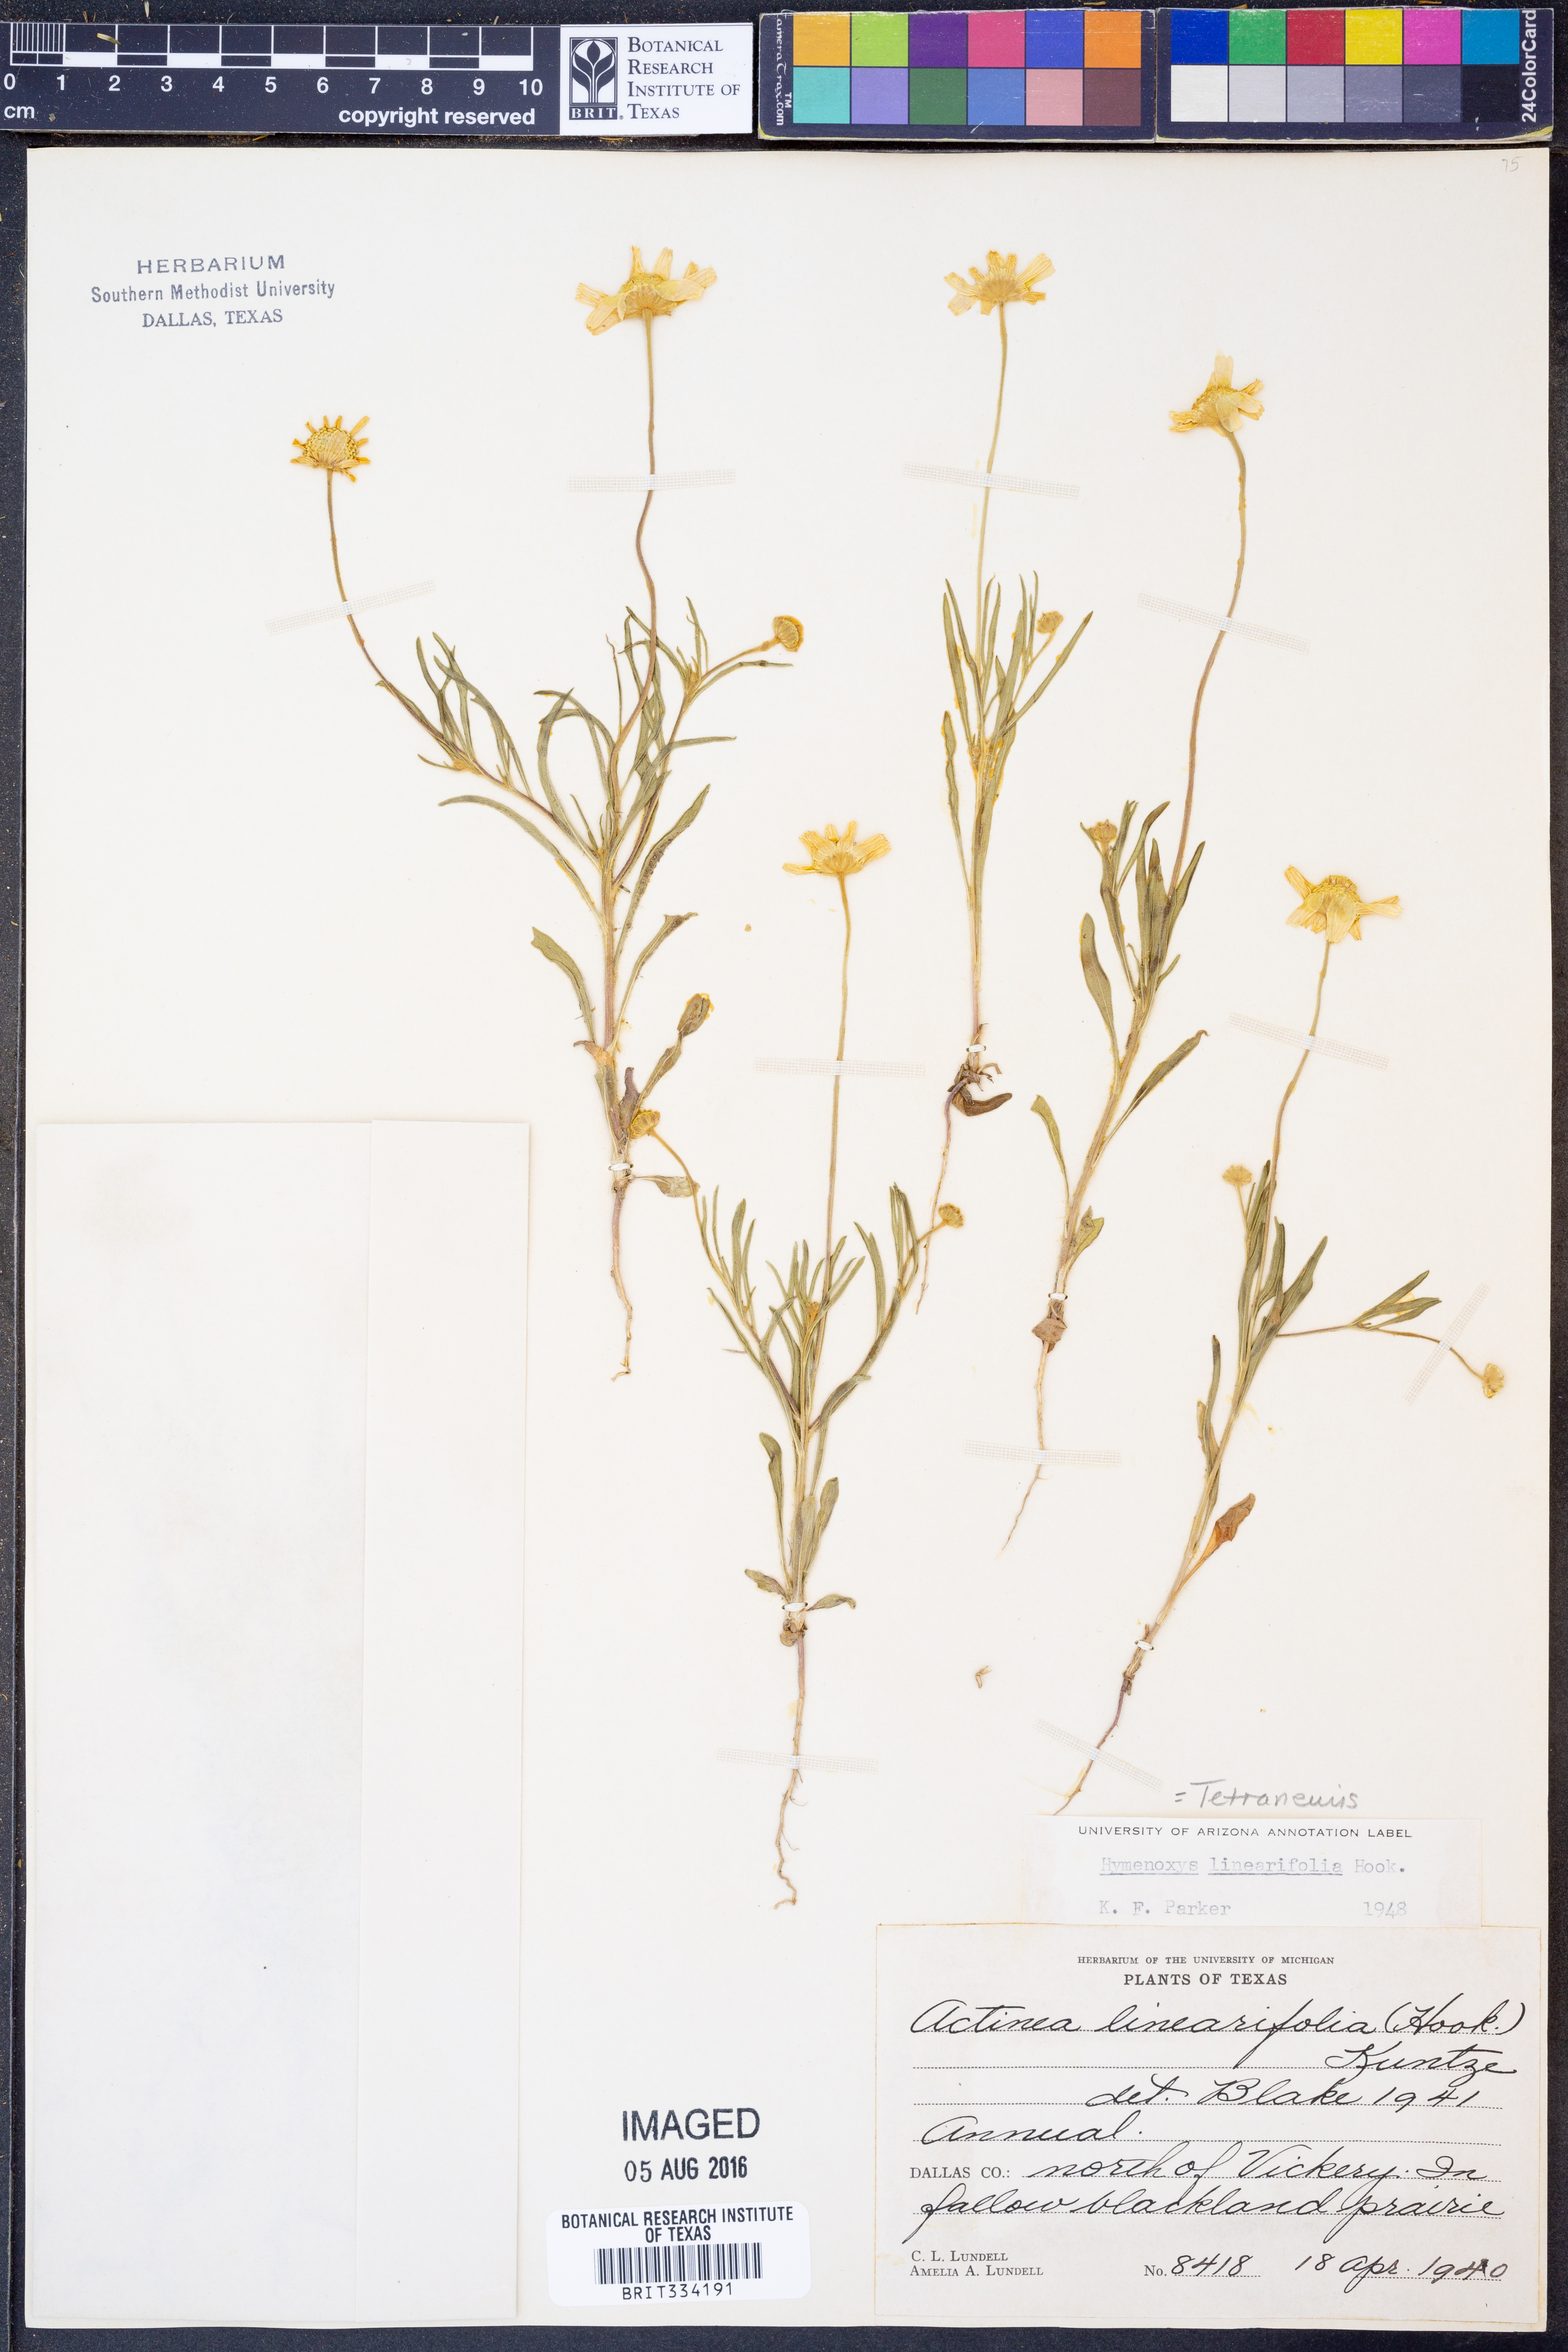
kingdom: Plantae
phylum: Tracheophyta
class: Magnoliopsida
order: Asterales
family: Asteraceae
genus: Tetraneuris
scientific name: Tetraneuris linearifolia
